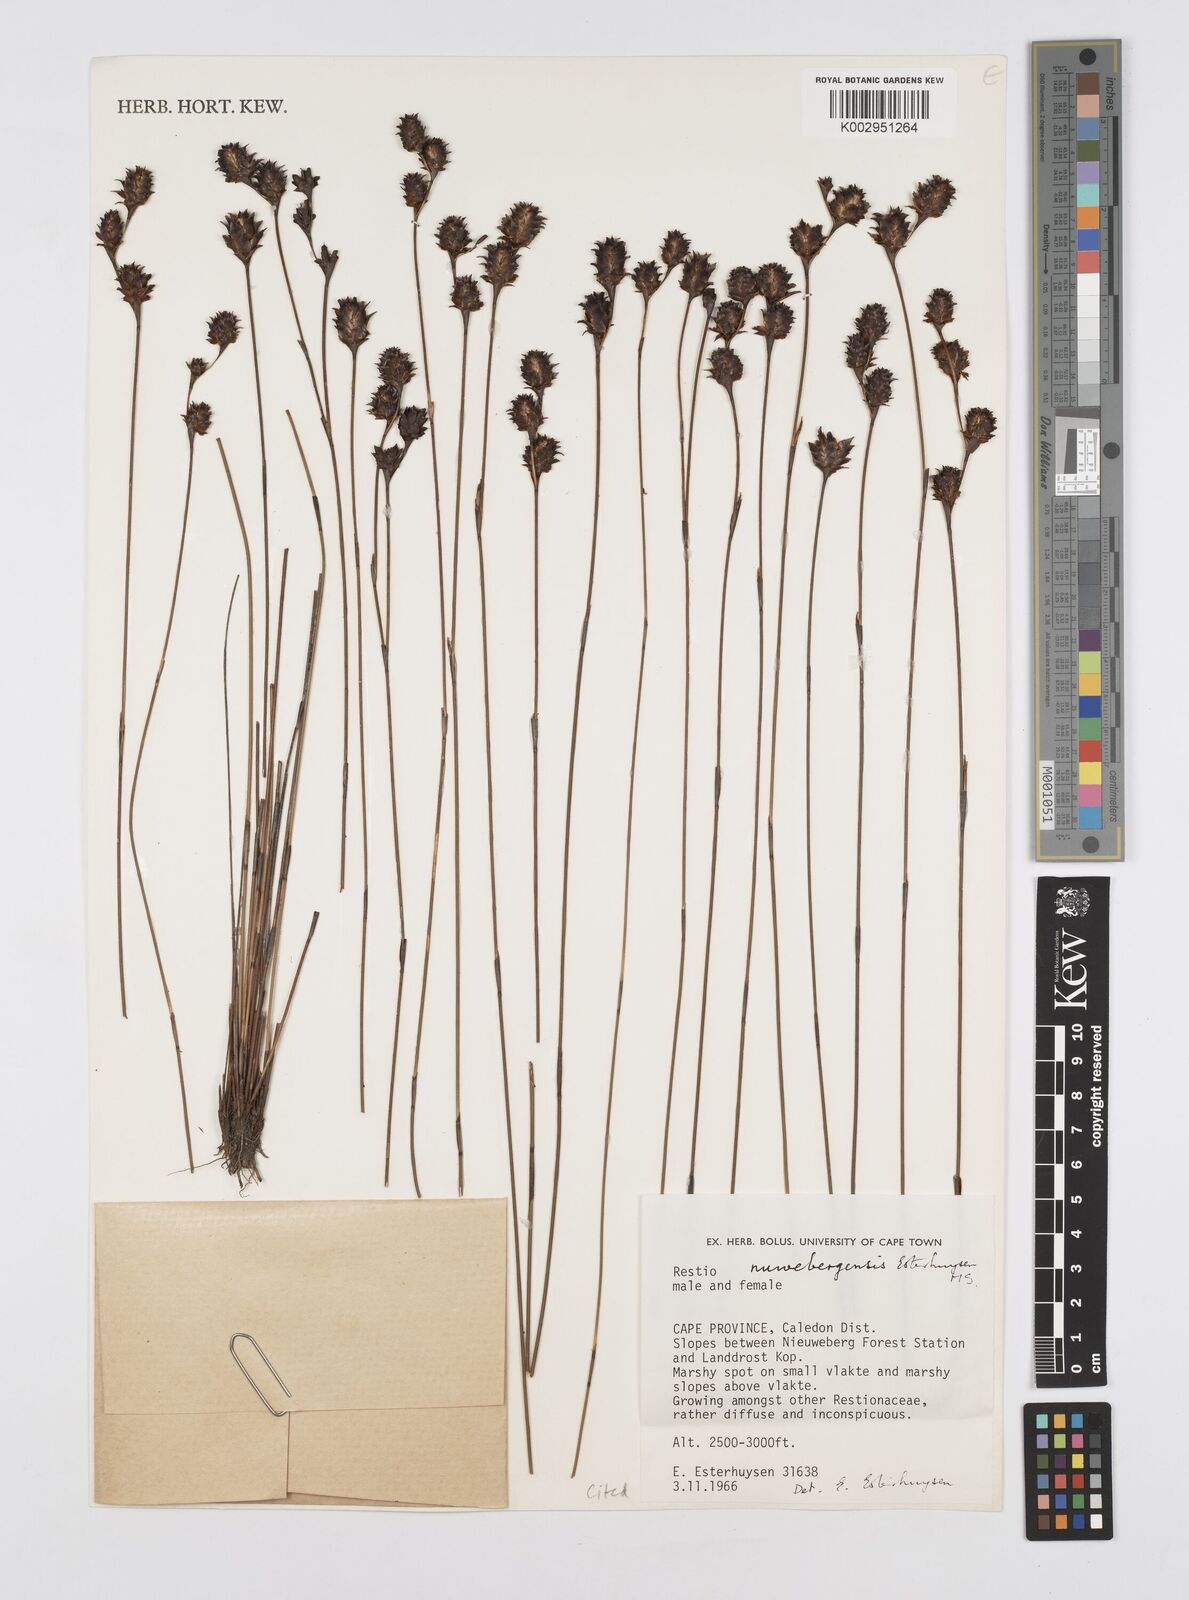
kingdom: Plantae
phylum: Tracheophyta
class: Liliopsida
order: Poales
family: Restionaceae
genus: Restio
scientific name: Restio nuwebergensis
